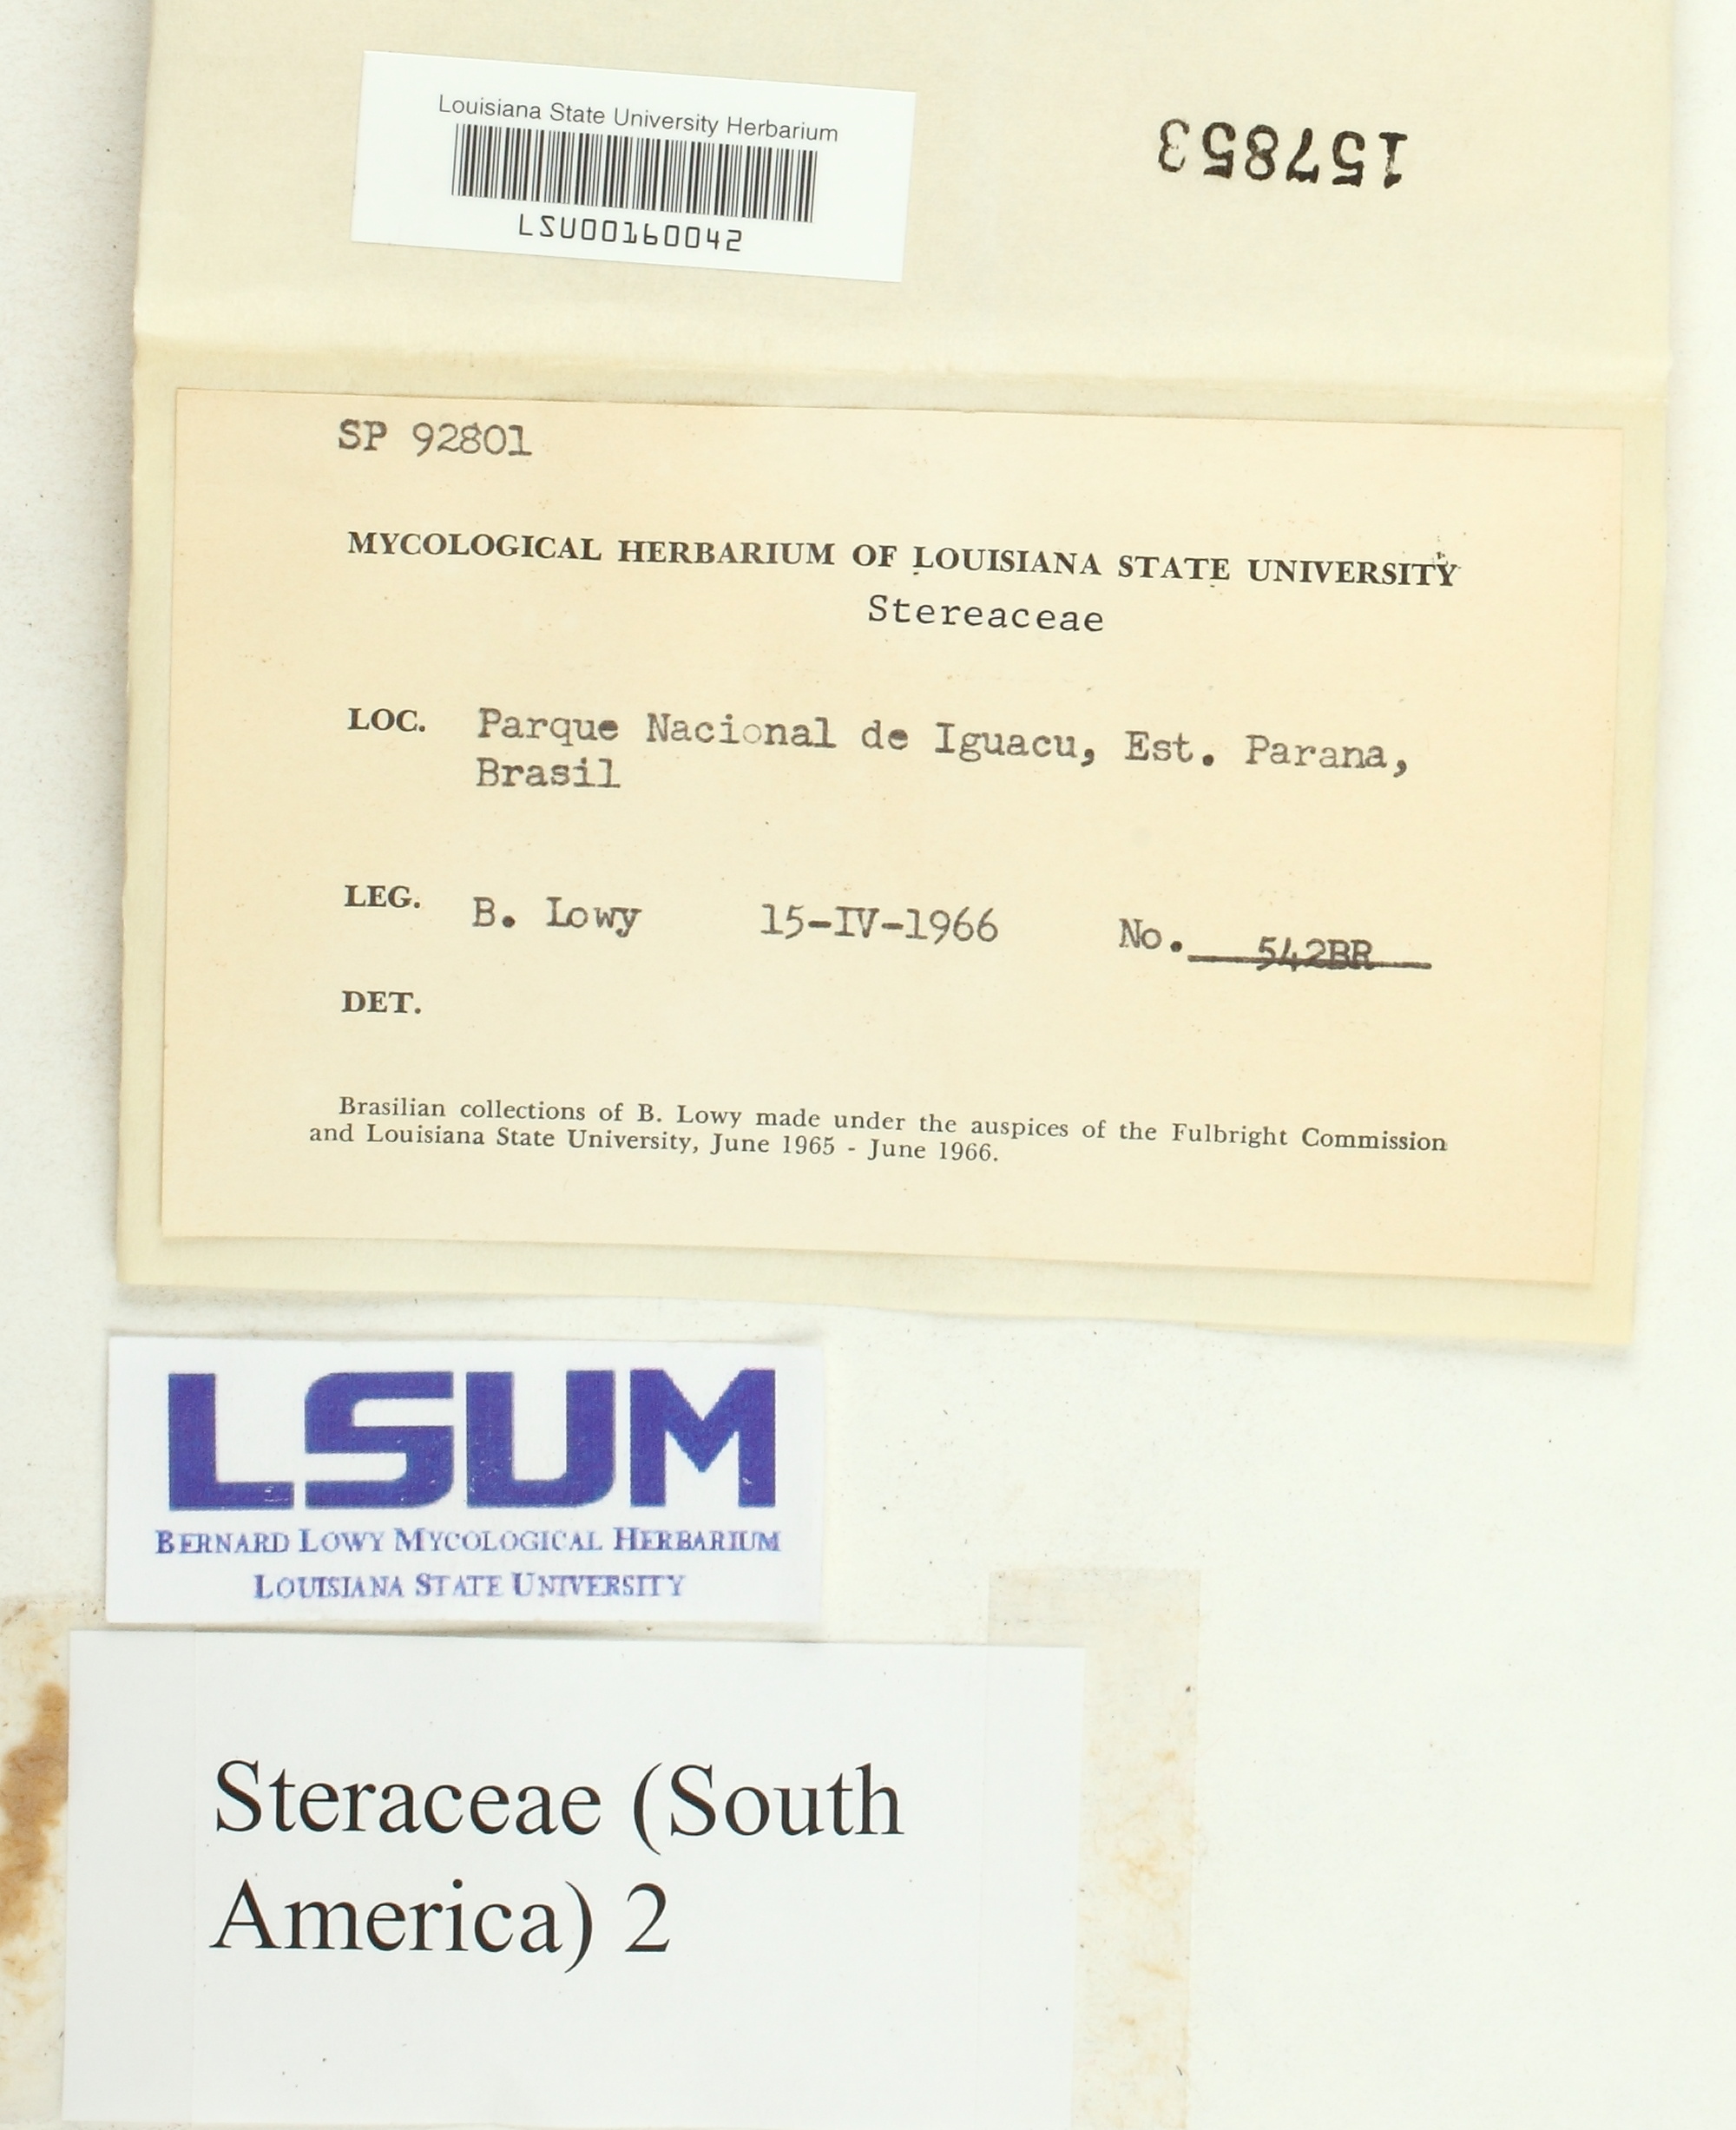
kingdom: Fungi
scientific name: Fungi
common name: Fungi
